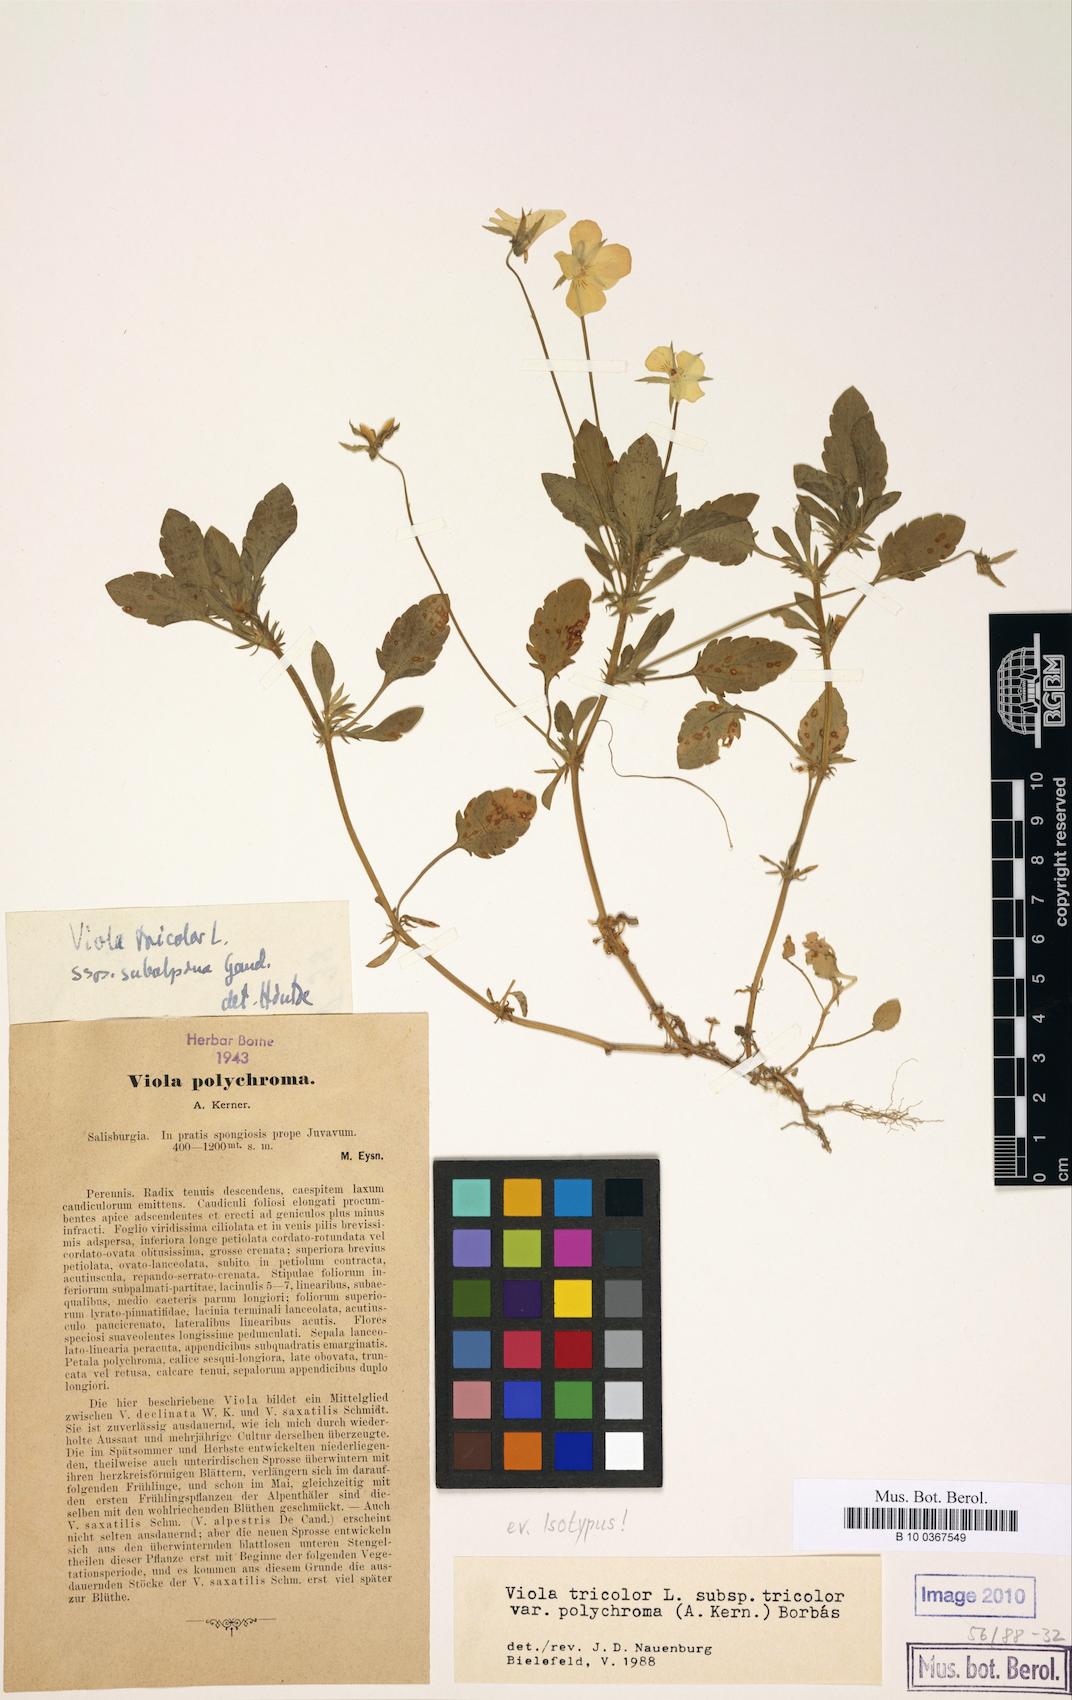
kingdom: Plantae
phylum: Tracheophyta
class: Magnoliopsida
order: Malpighiales
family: Violaceae
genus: Viola
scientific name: Viola tricolor
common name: Pansy
